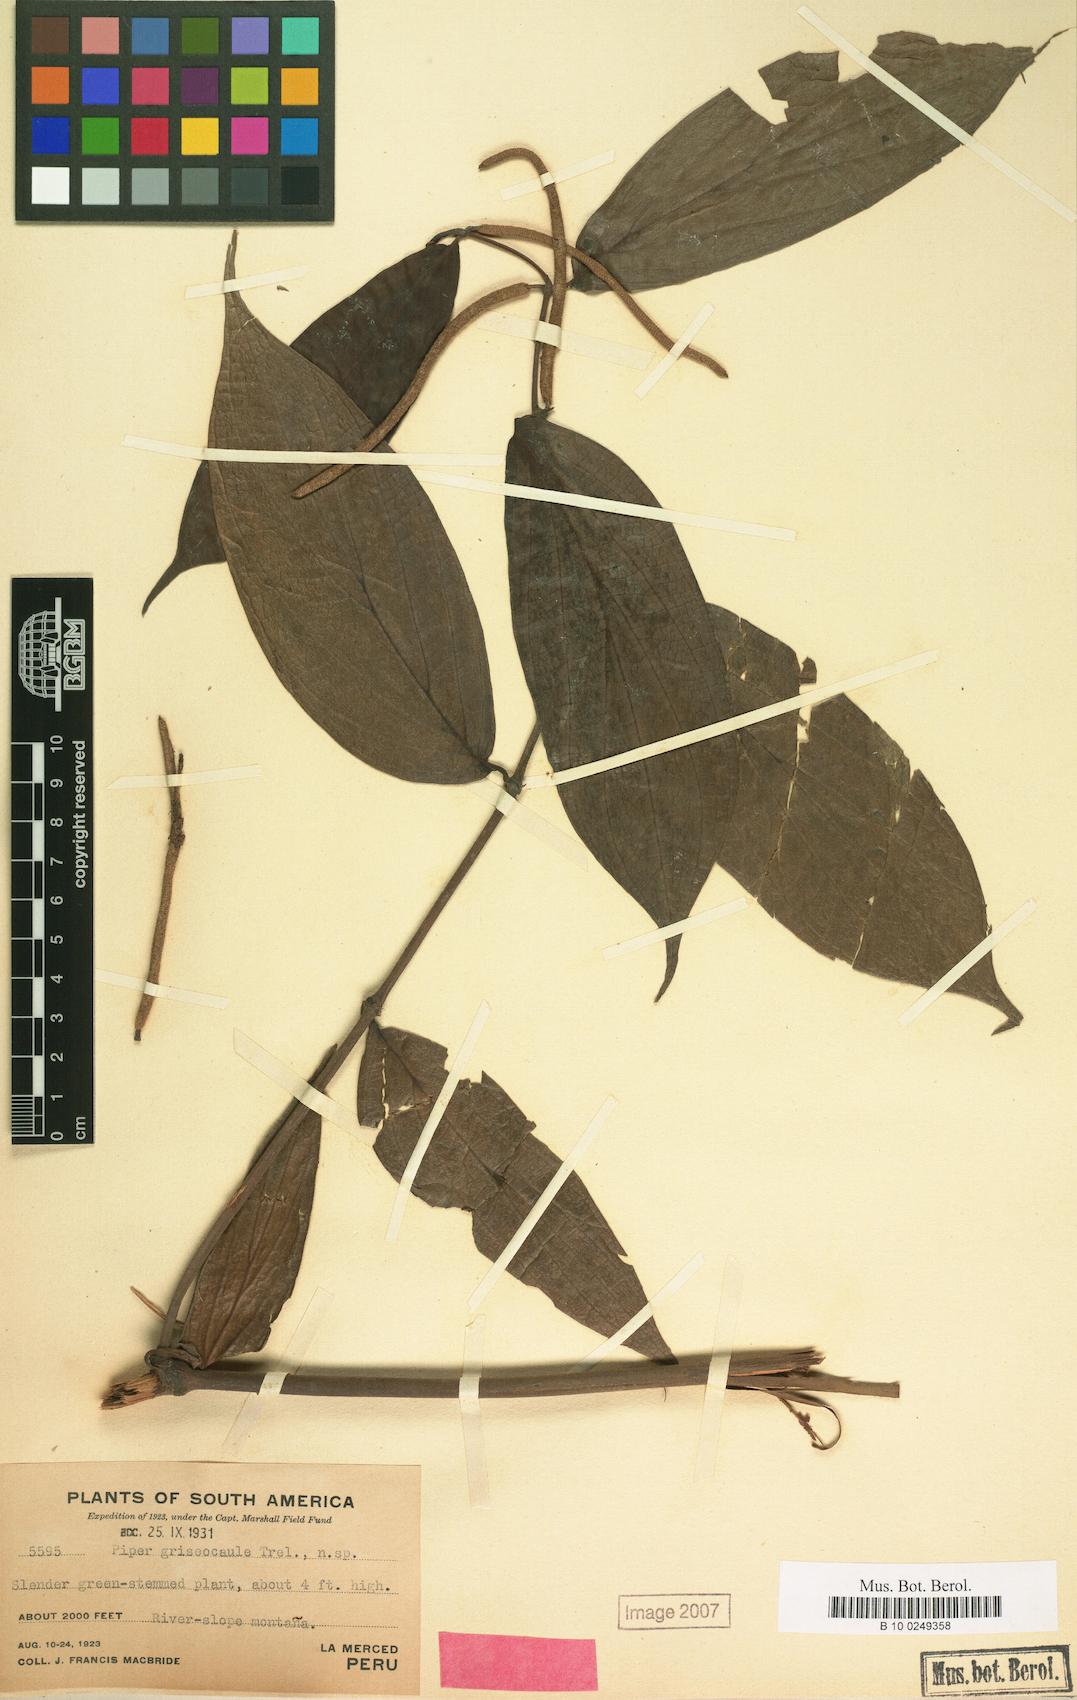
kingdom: Plantae
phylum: Tracheophyta
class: Magnoliopsida
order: Piperales
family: Piperaceae
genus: Piper
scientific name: Piper griseocaule
